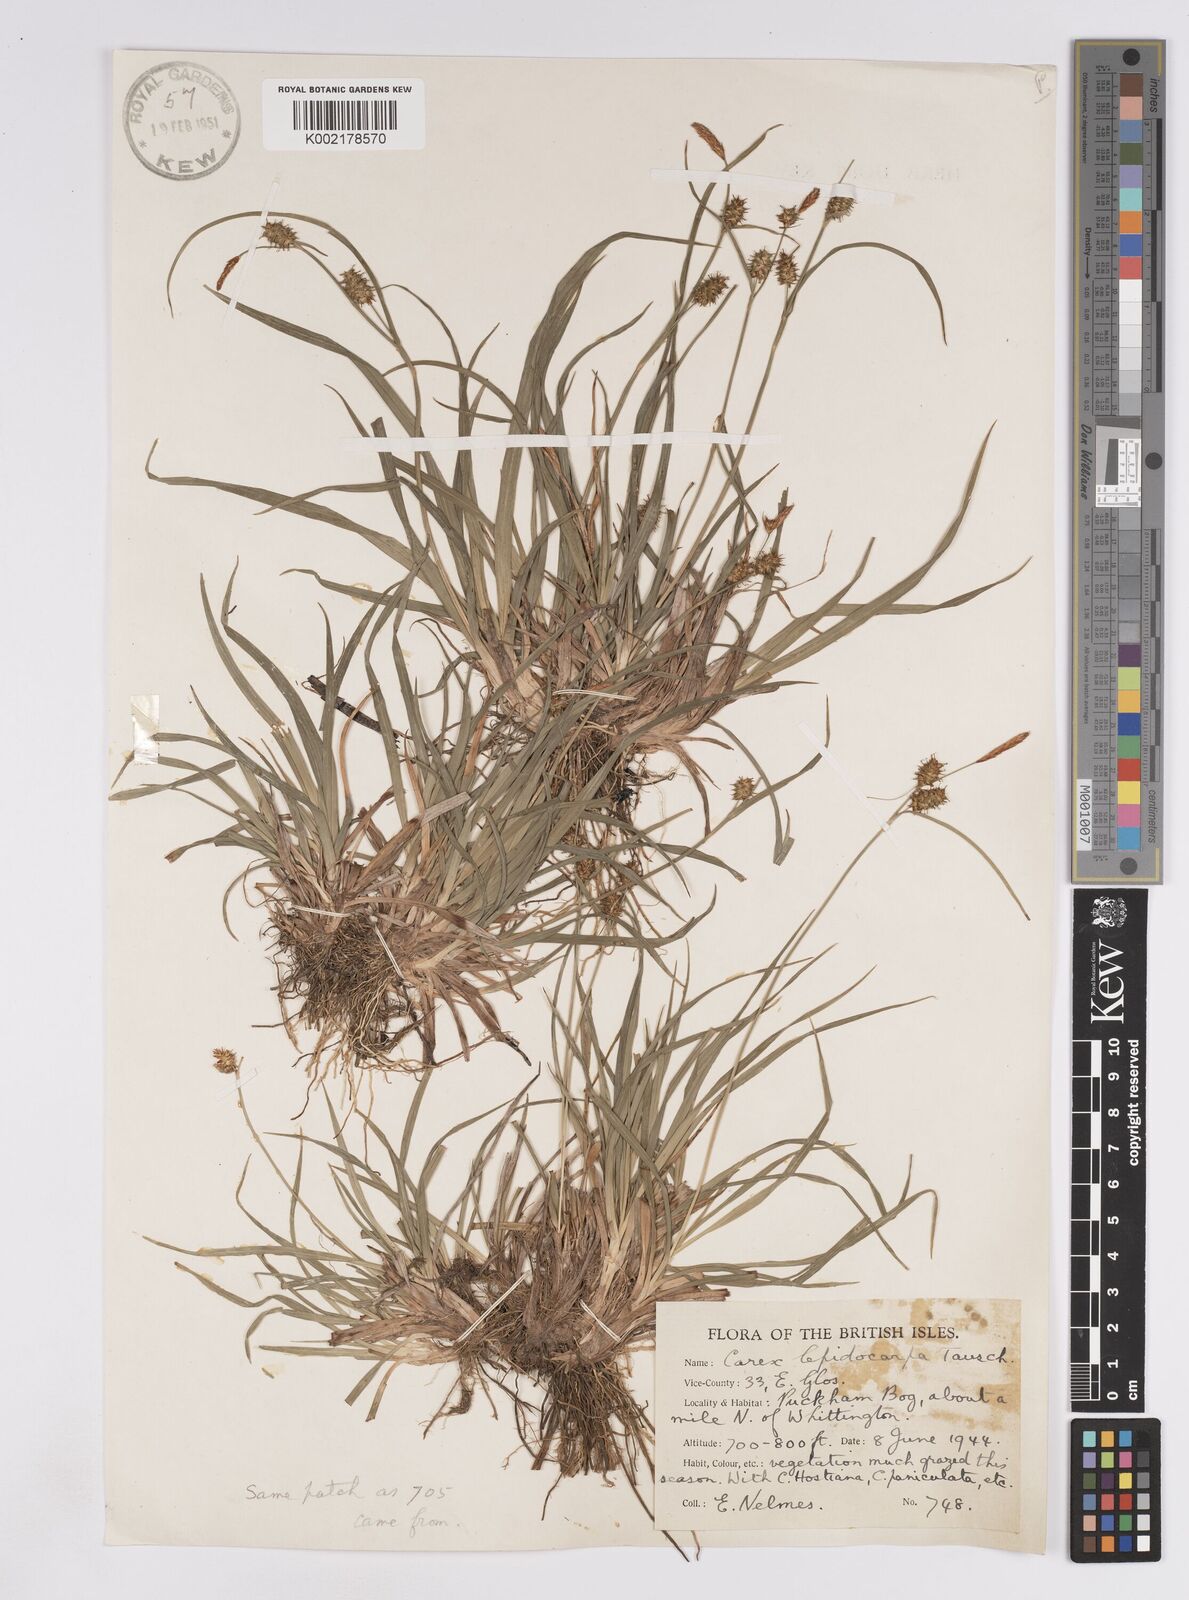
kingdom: Plantae
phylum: Tracheophyta
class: Liliopsida
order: Poales
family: Cyperaceae
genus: Carex
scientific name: Carex lepidocarpa
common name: Long-stalked yellow-sedge
